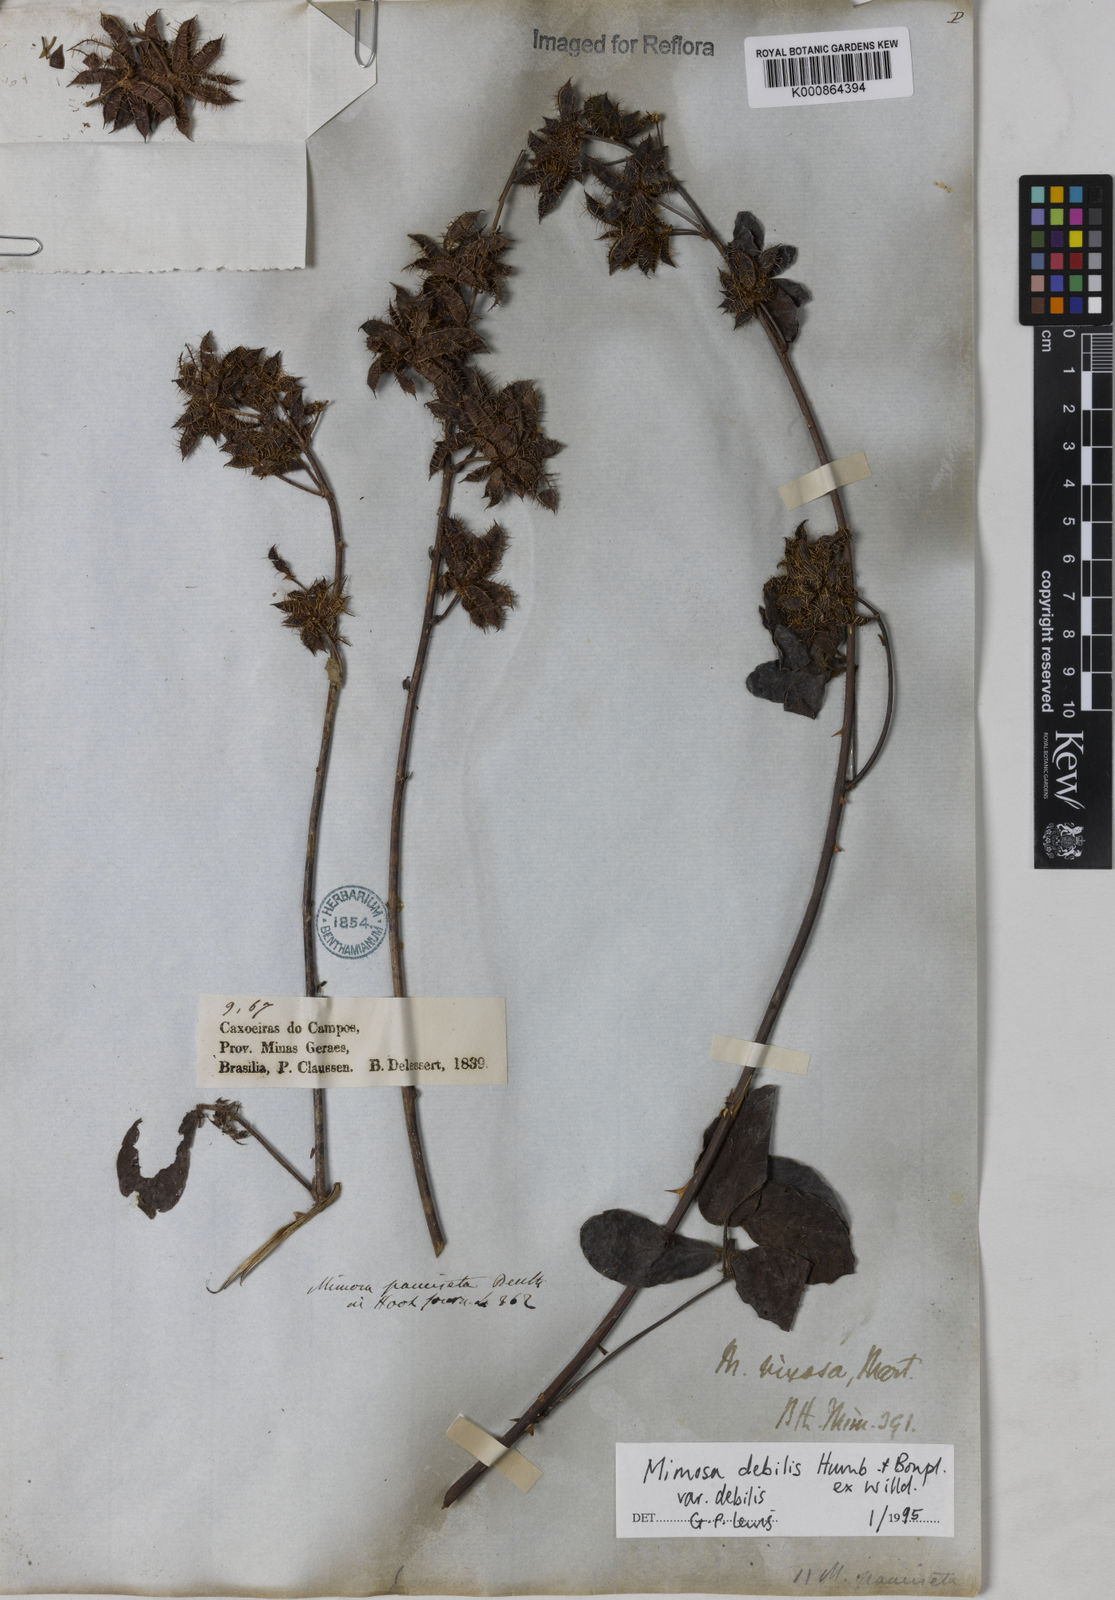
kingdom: Plantae
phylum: Tracheophyta
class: Magnoliopsida
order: Fabales
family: Fabaceae
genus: Mimosa
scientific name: Mimosa debilis
